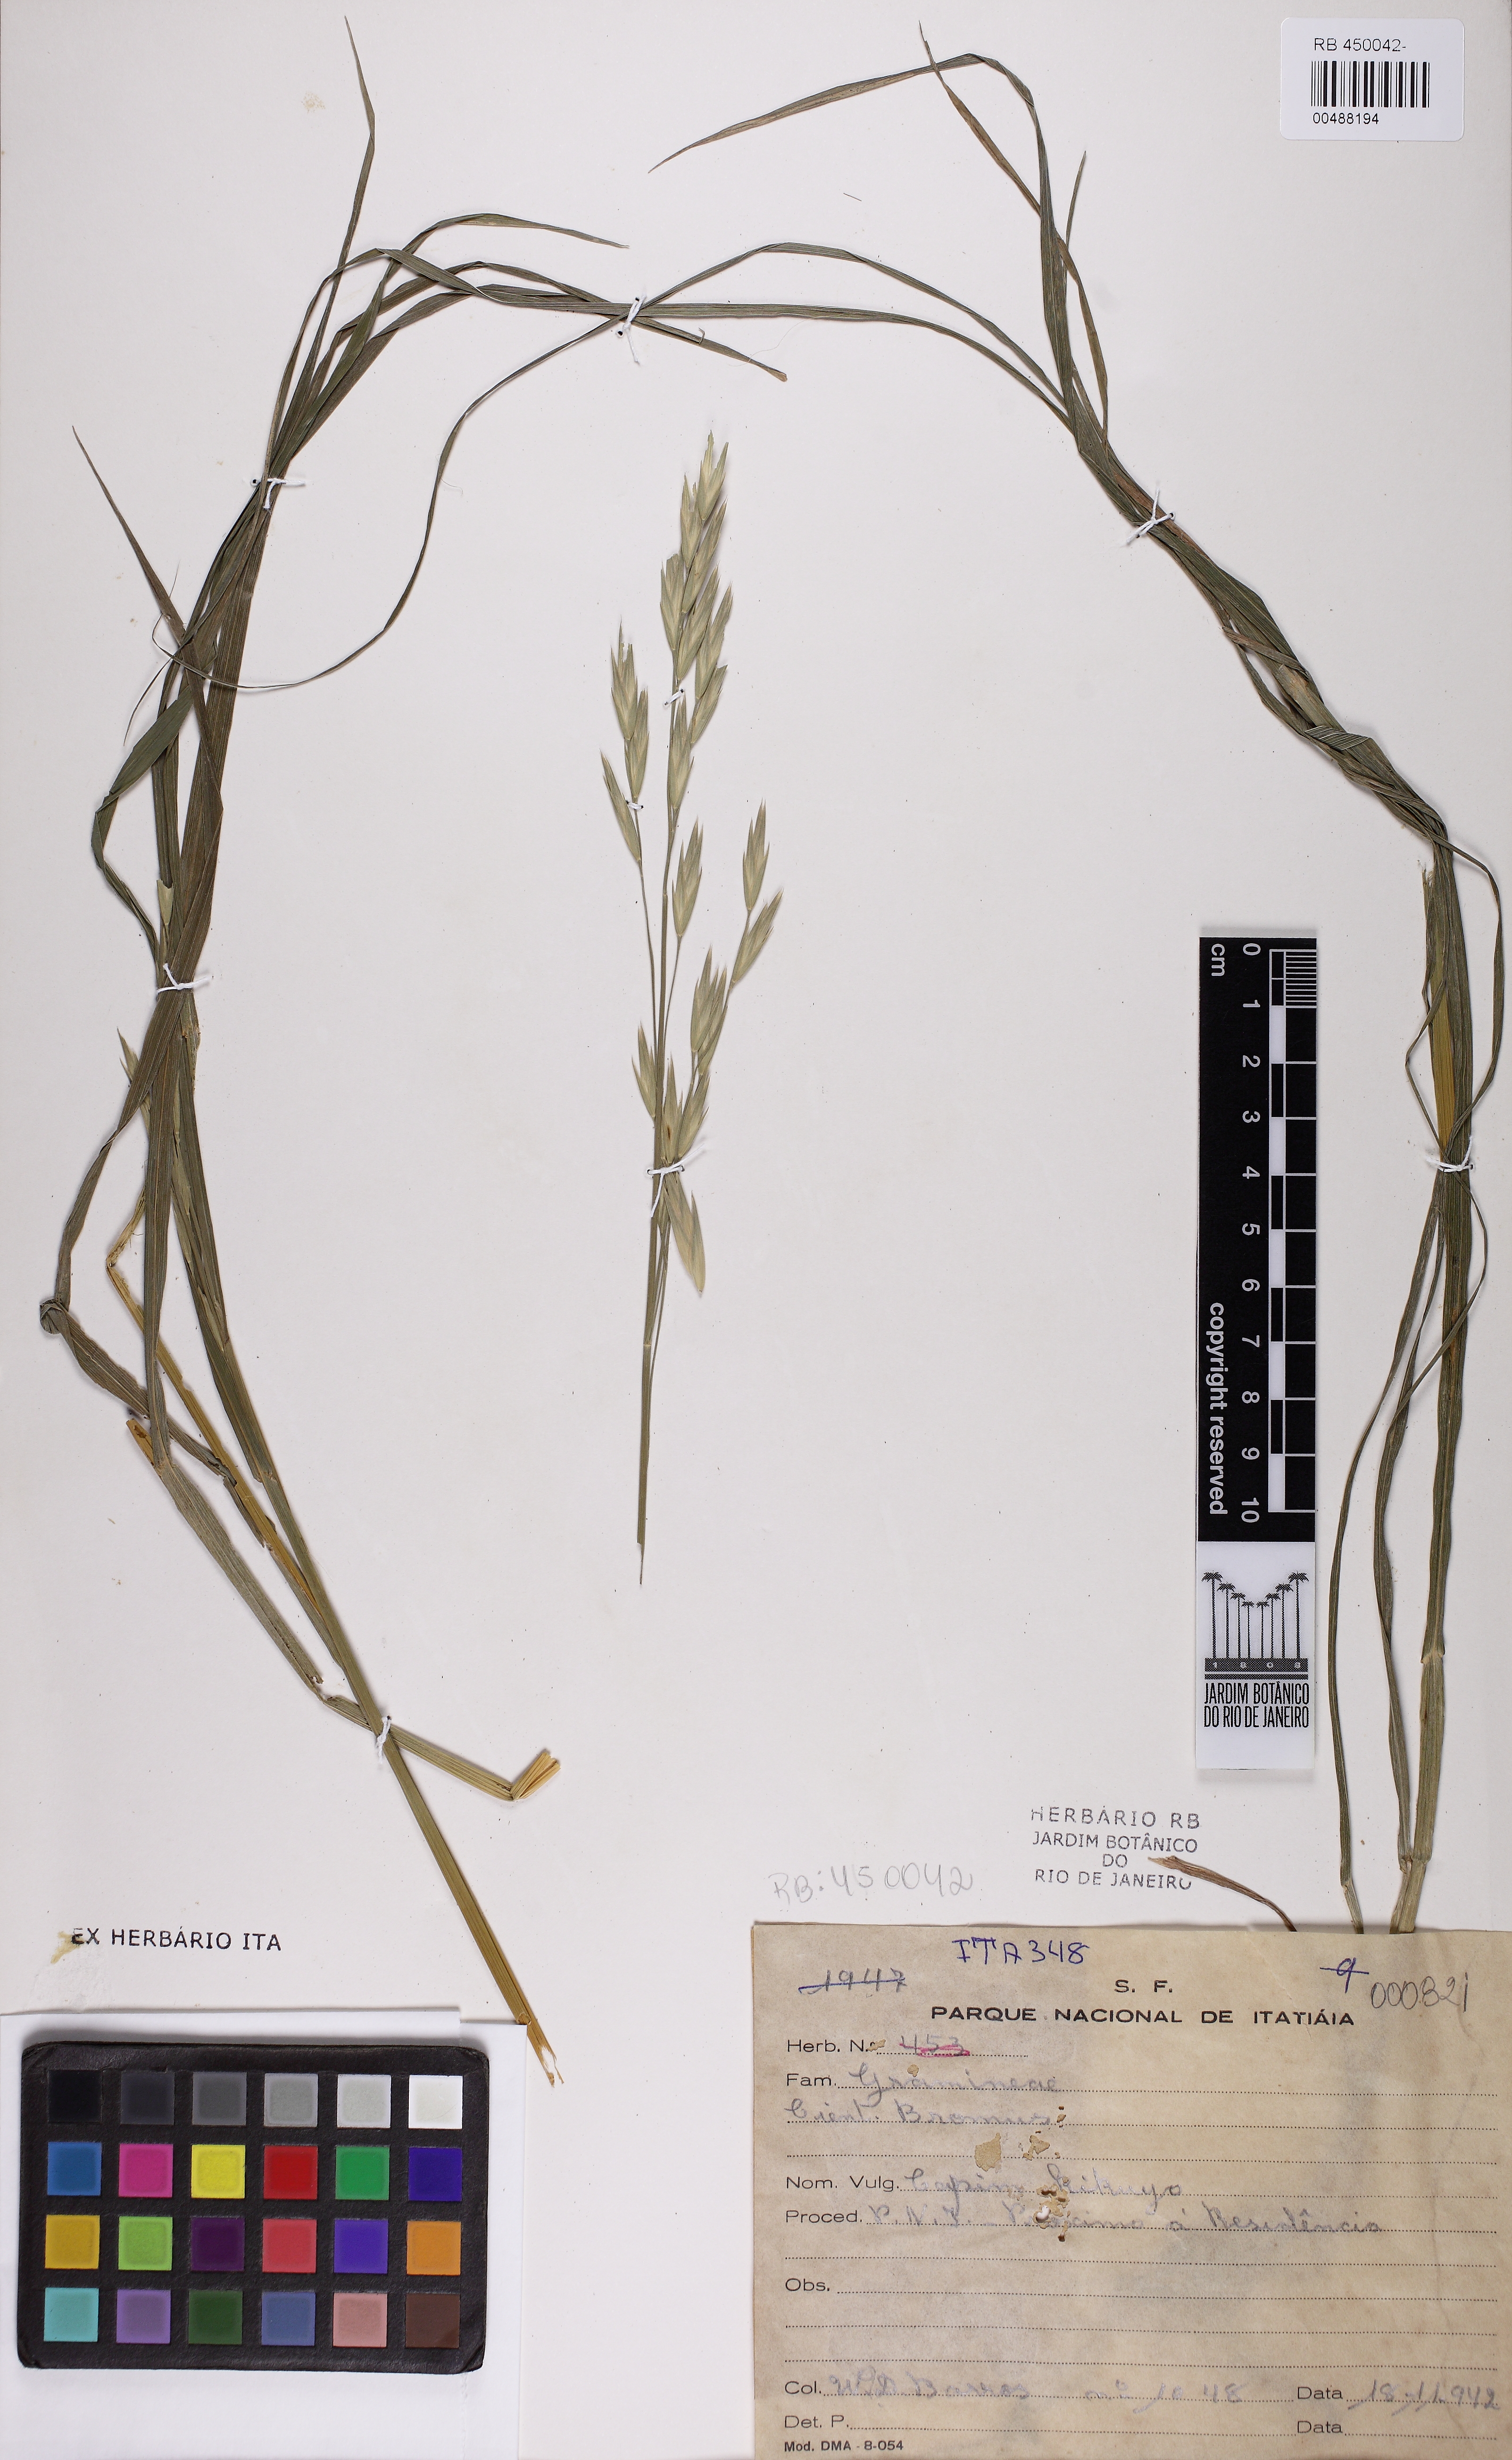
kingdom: Plantae
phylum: Tracheophyta
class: Liliopsida
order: Poales
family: Poaceae
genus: Bromus
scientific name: Bromus
